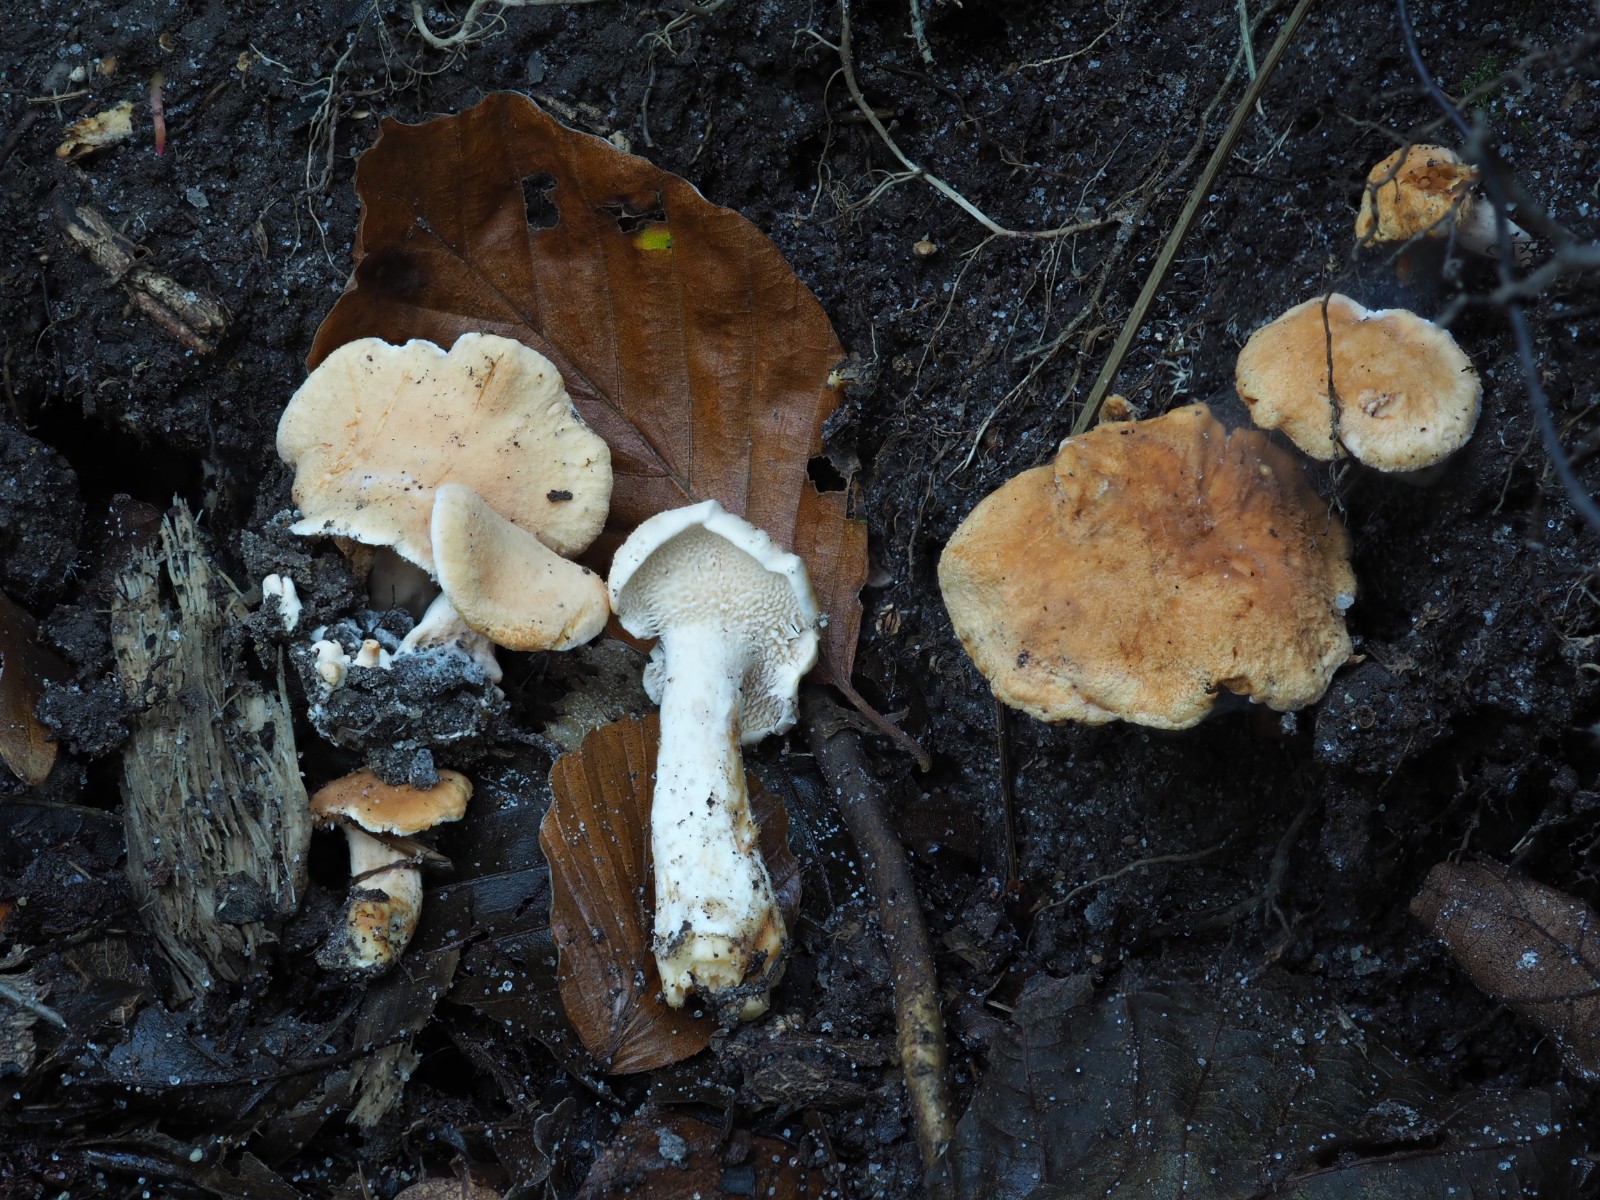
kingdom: Fungi
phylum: Basidiomycota
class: Agaricomycetes
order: Cantharellales
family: Hydnaceae
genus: Hydnum
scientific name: Hydnum
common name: pigsvamp
